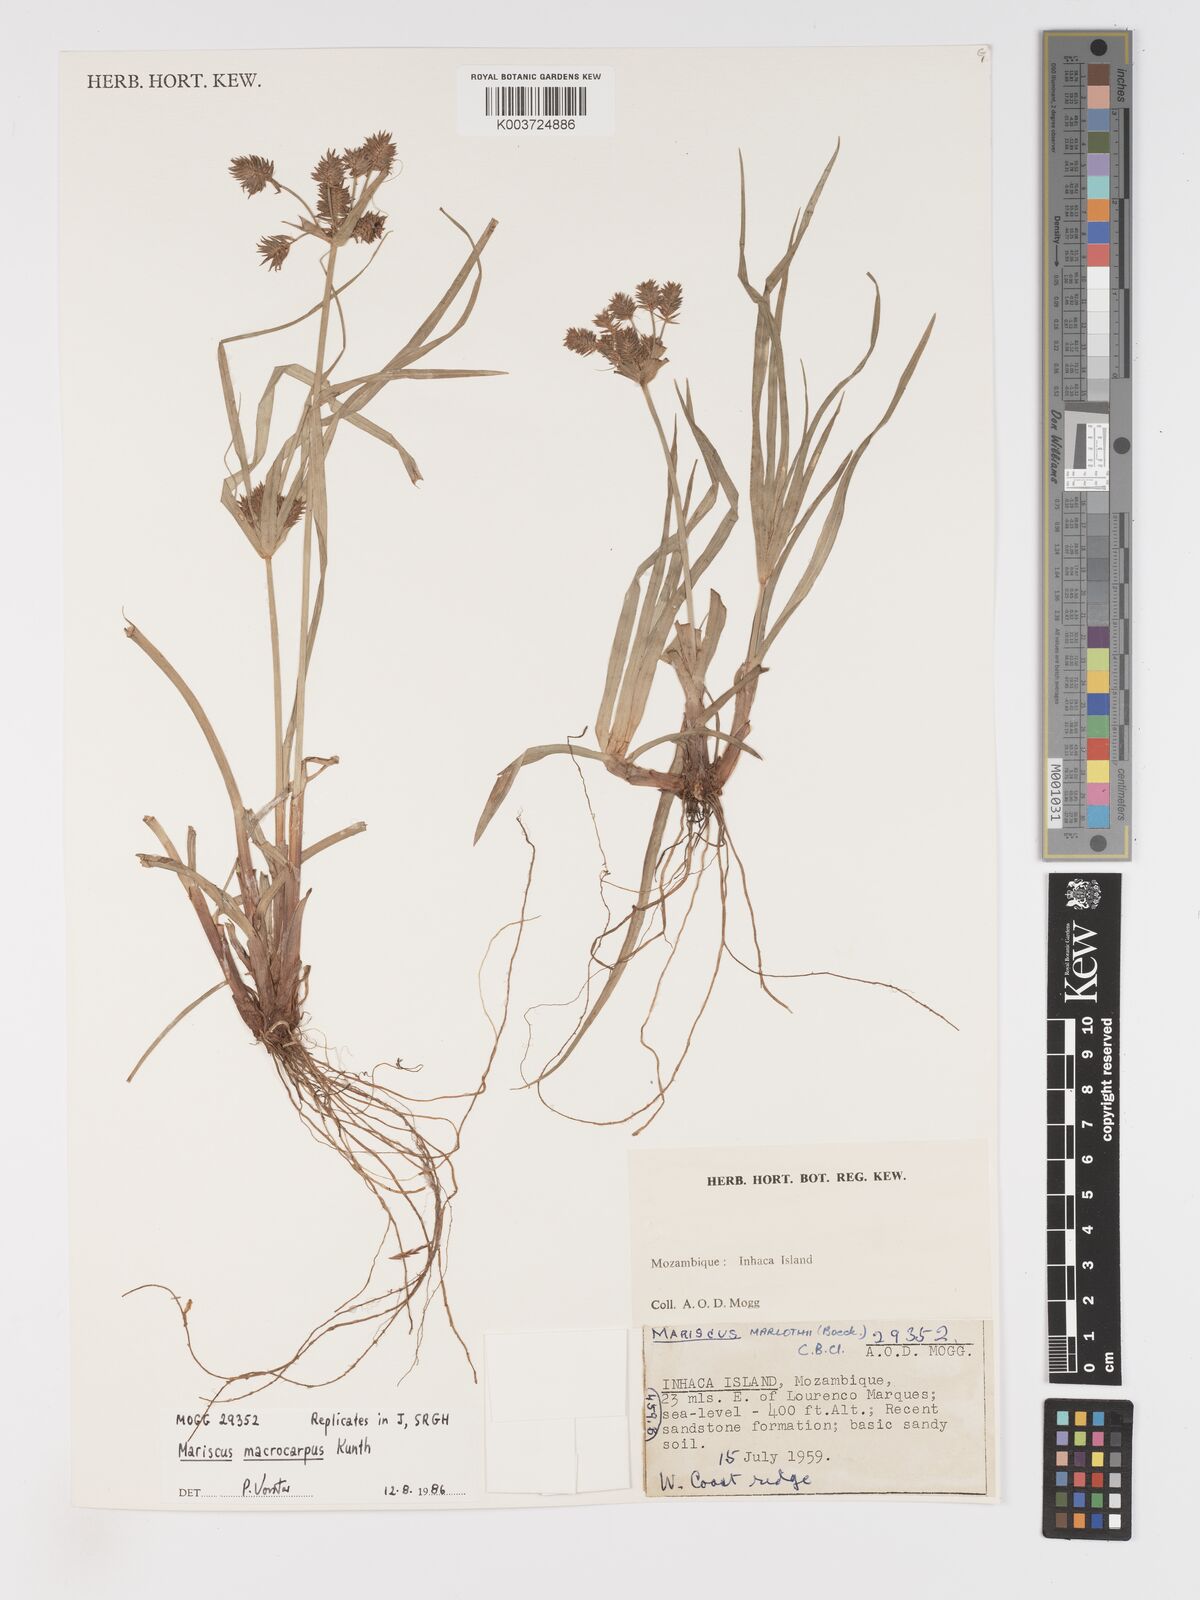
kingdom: Plantae
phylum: Tracheophyta
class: Liliopsida
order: Poales
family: Cyperaceae
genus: Cyperus
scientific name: Cyperus macrocarpus
